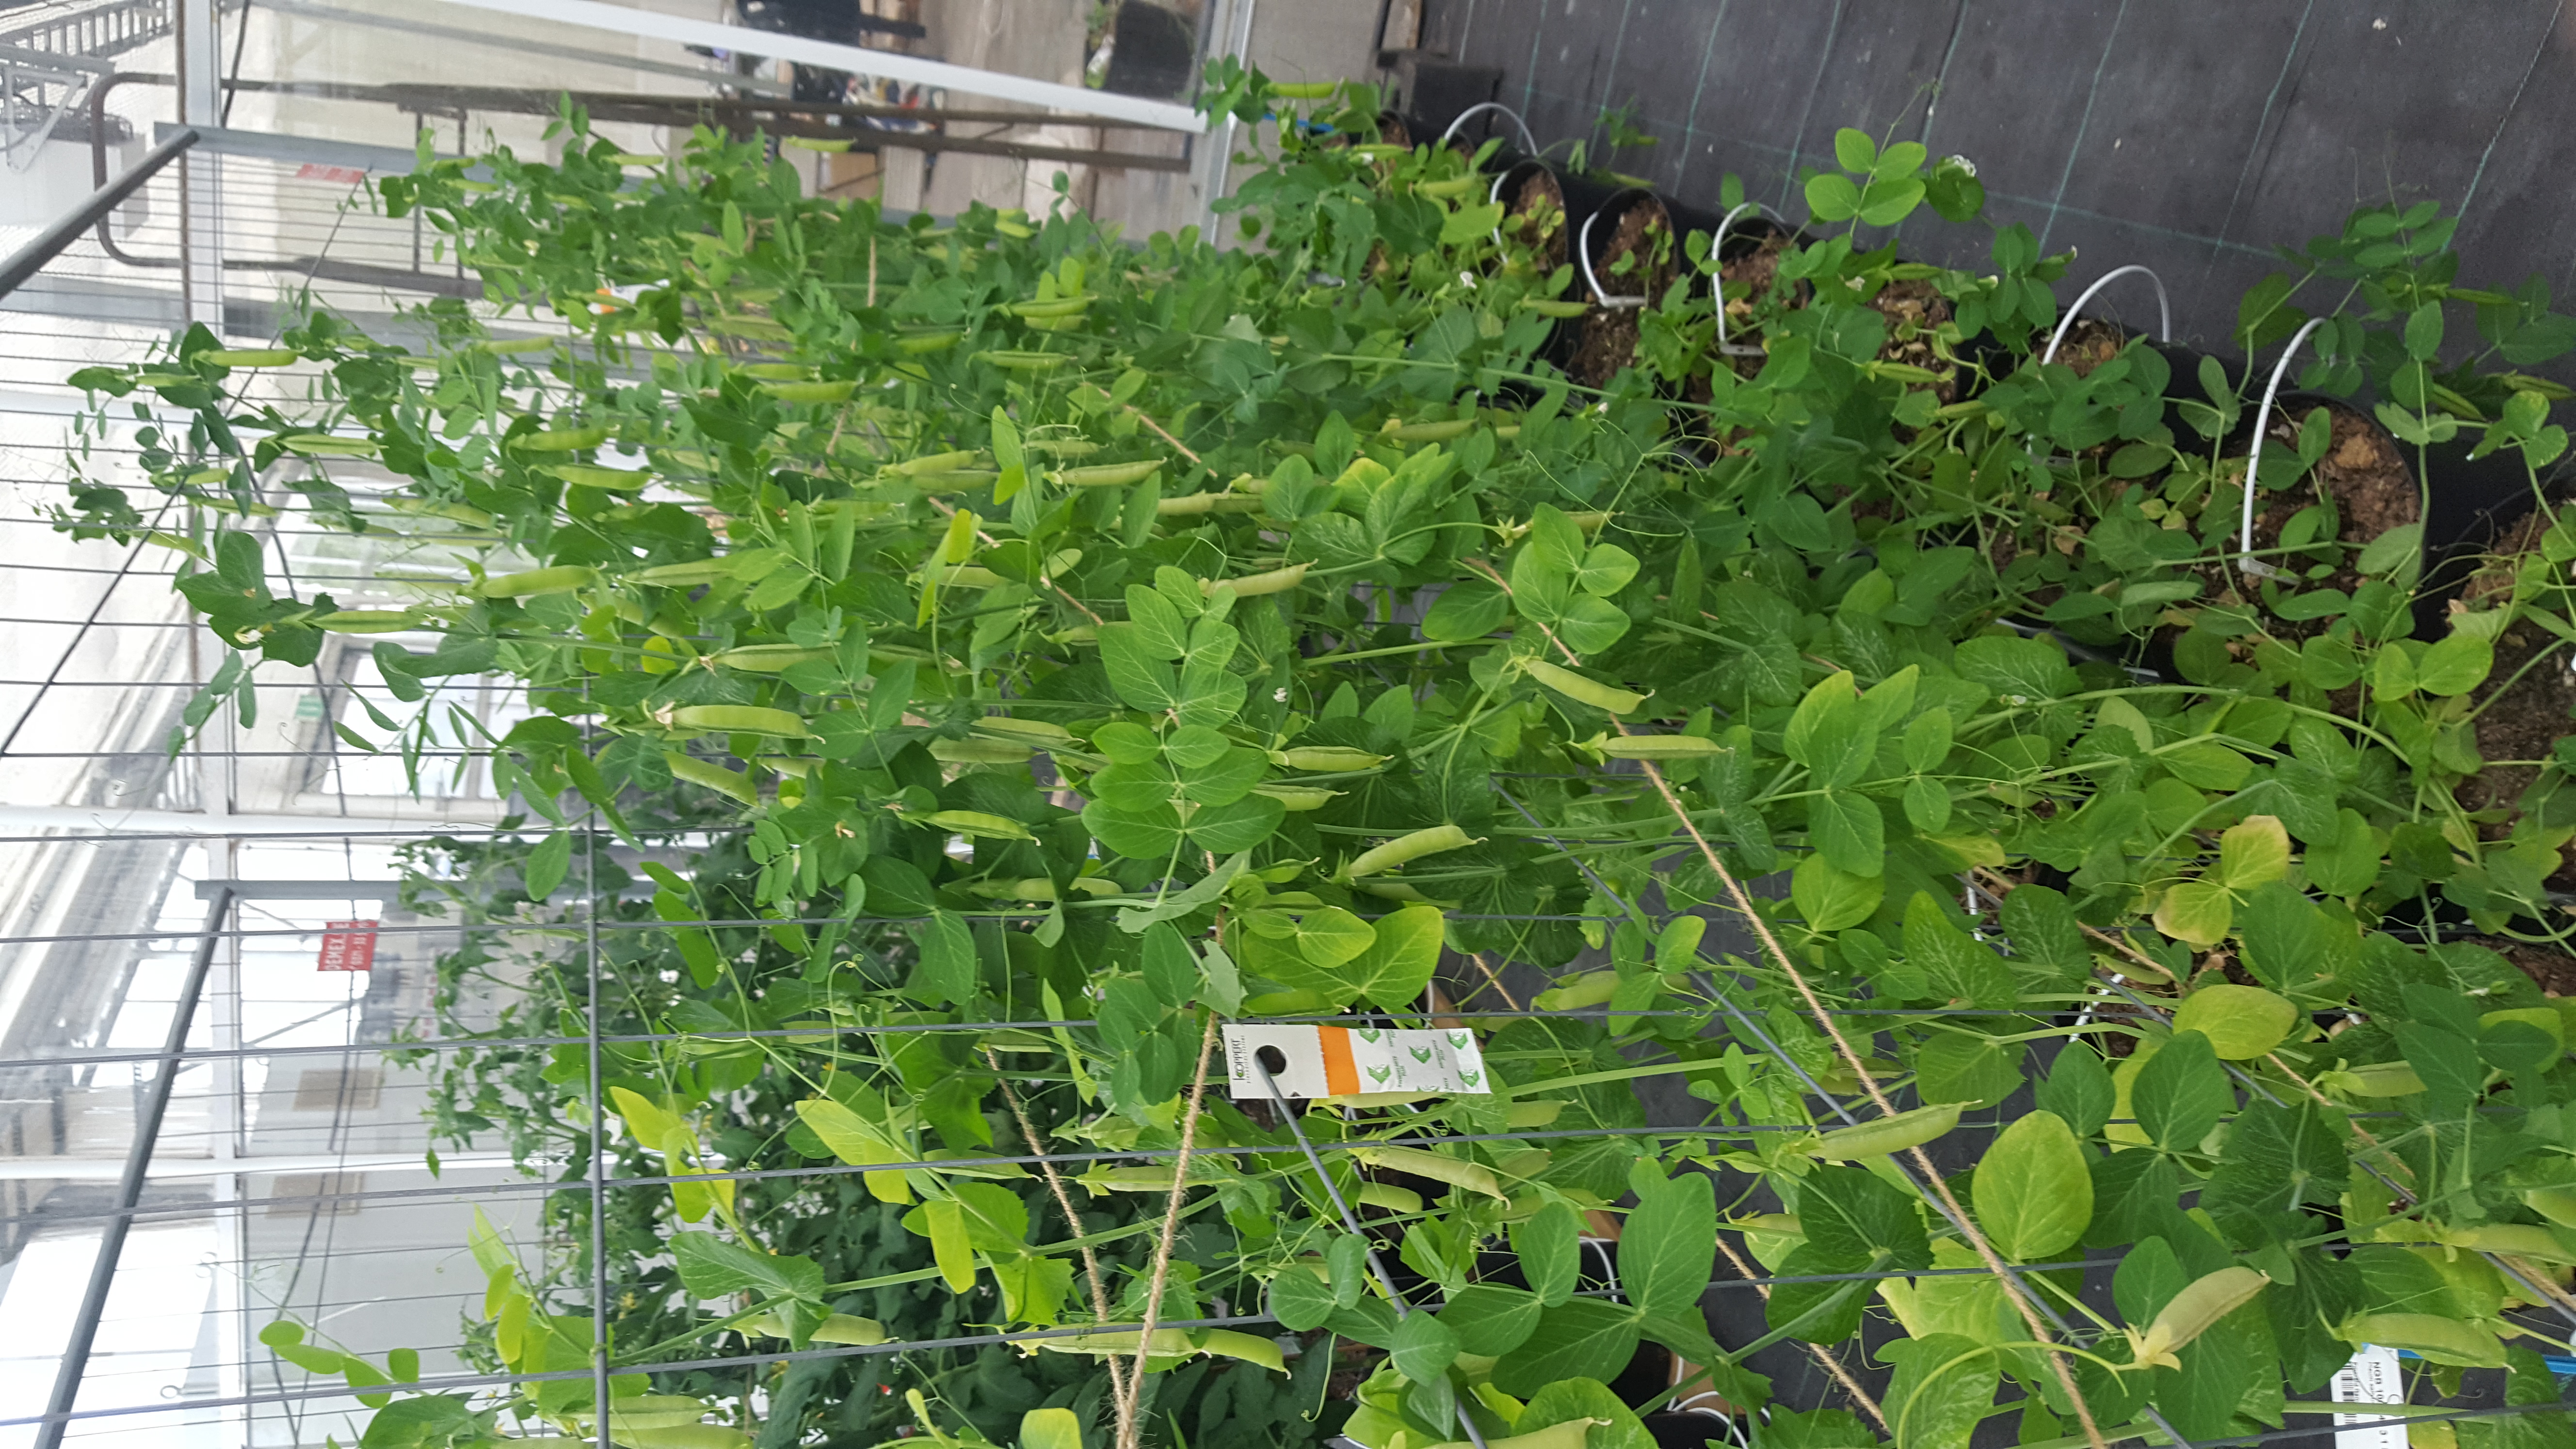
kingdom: Plantae
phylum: Tracheophyta
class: Magnoliopsida
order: Fabales
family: Fabaceae
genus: Lathyrus
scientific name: Lathyrus oleraceus
